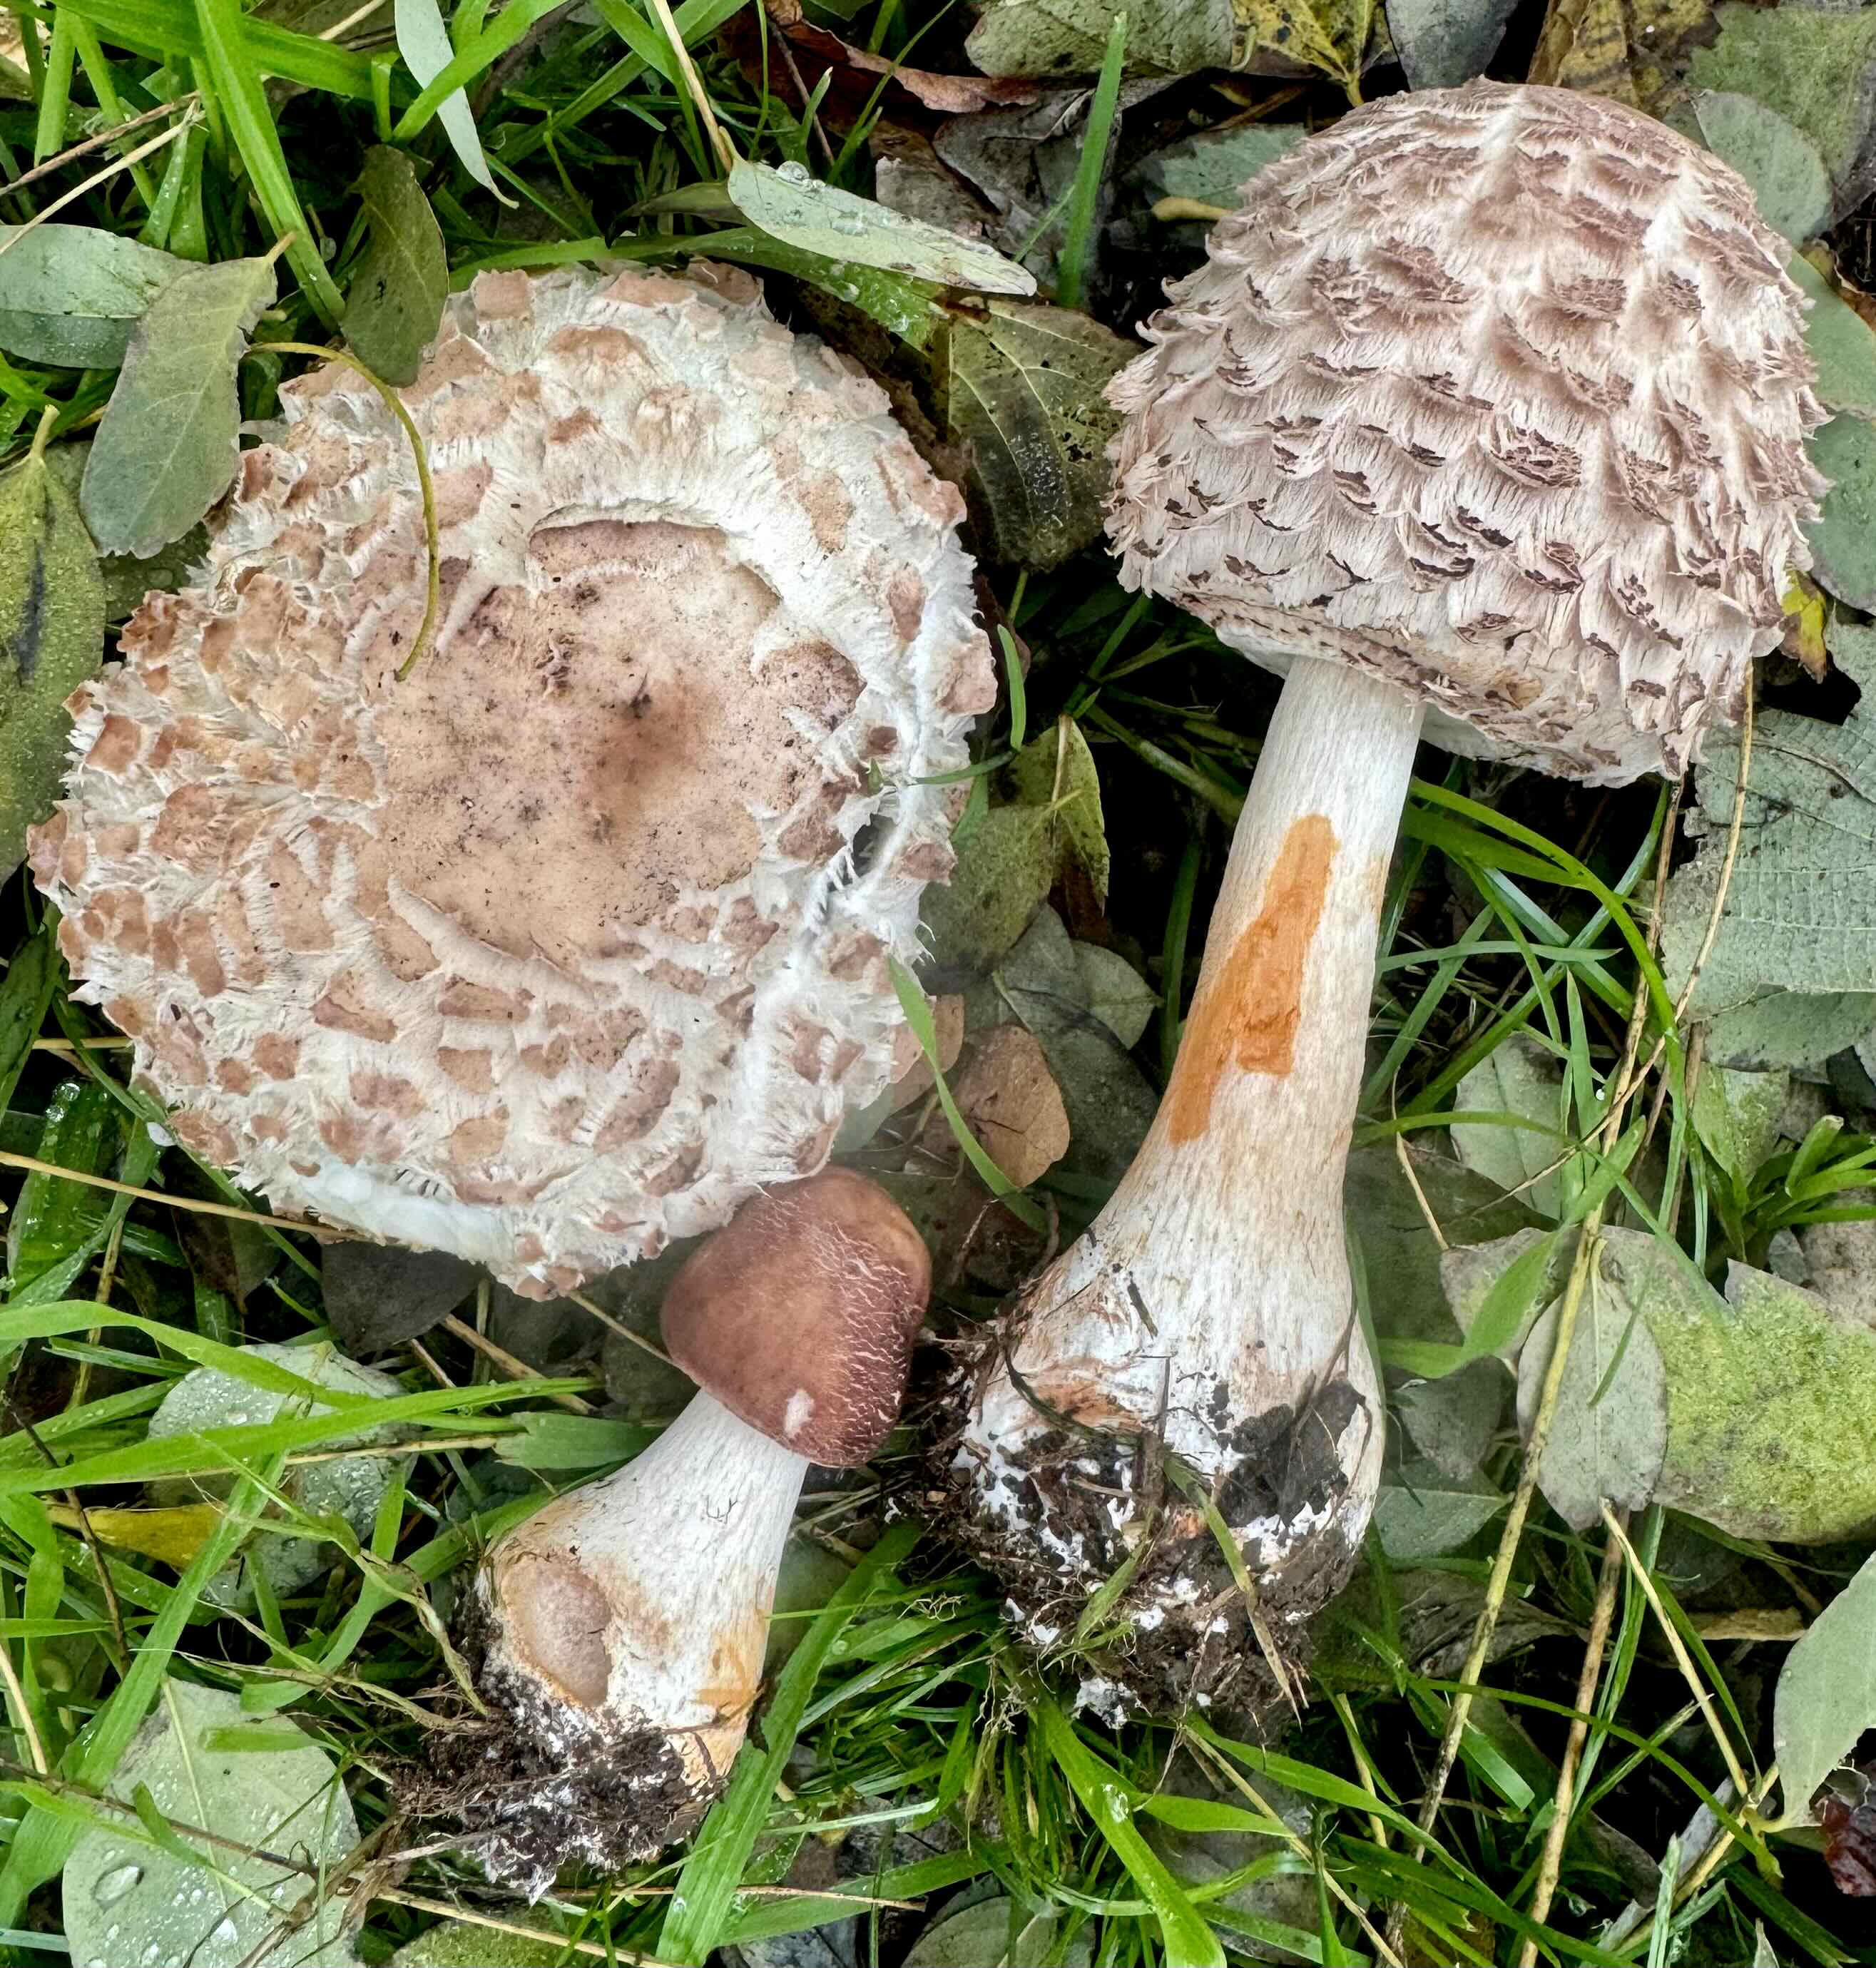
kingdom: Fungi
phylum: Basidiomycota
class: Agaricomycetes
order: Agaricales
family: Agaricaceae
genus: Chlorophyllum
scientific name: Chlorophyllum rhacodes
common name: ægte rabarberhat
